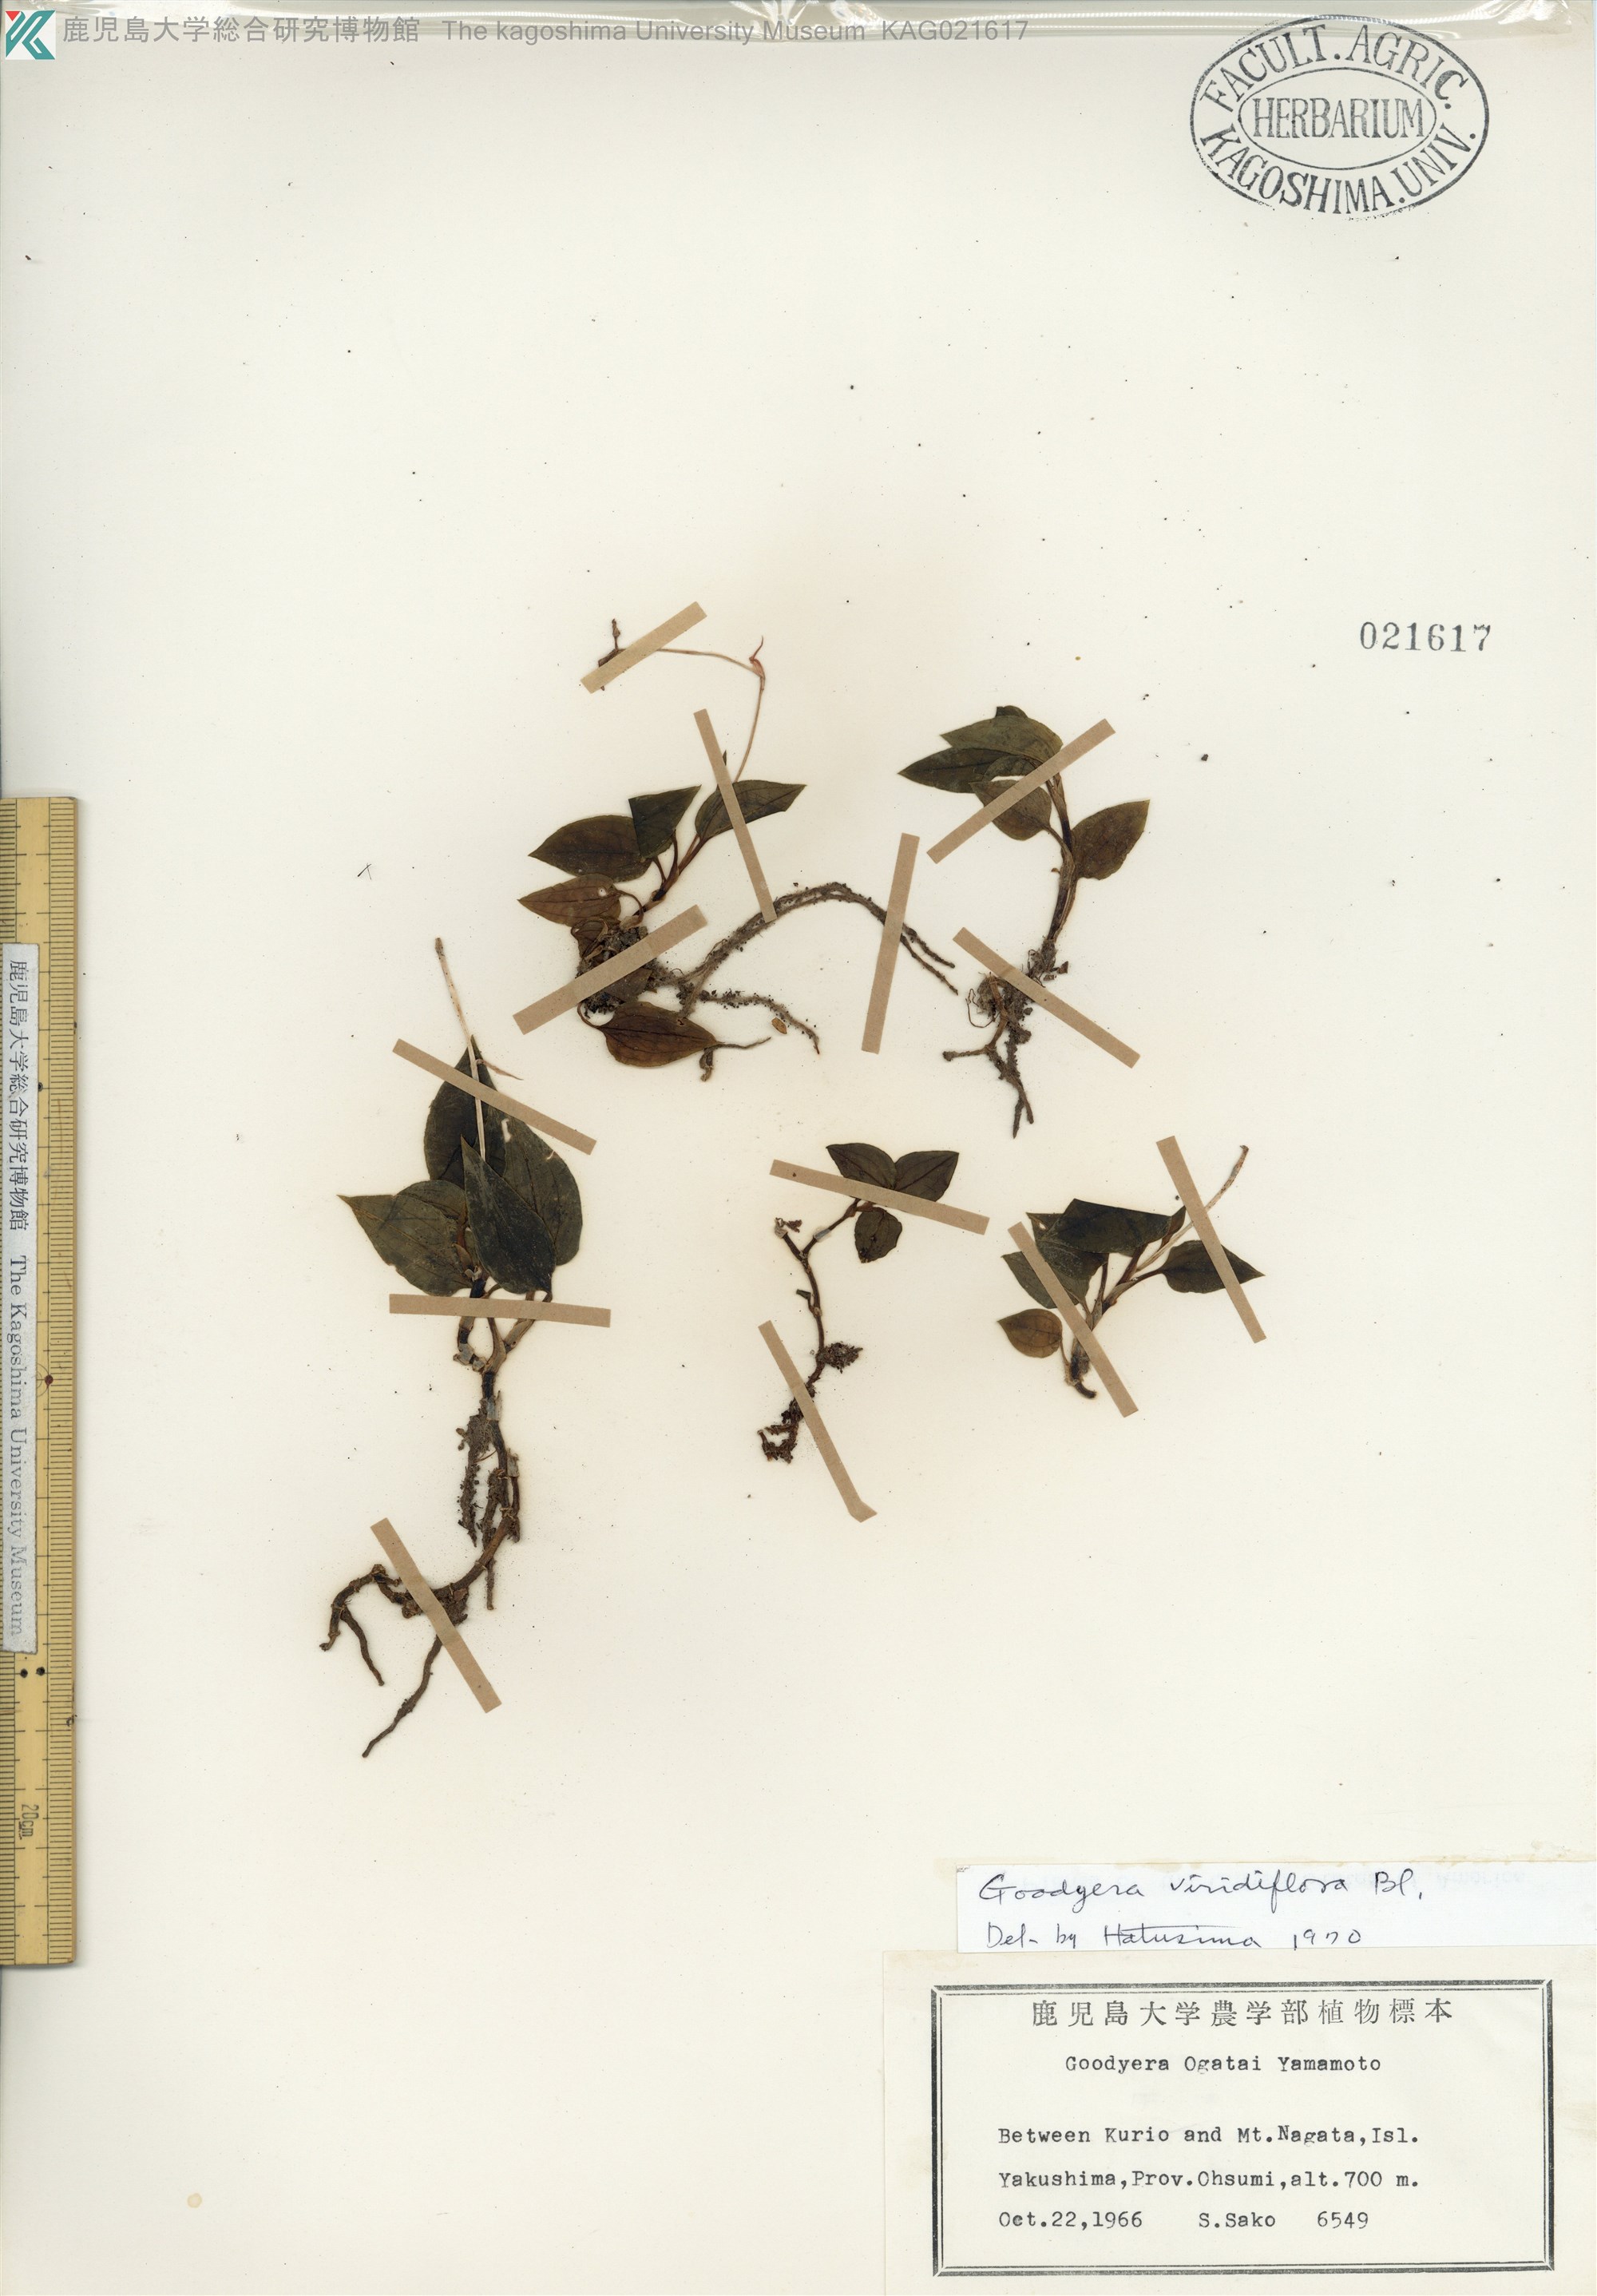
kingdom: Plantae
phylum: Tracheophyta
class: Liliopsida
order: Asparagales
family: Orchidaceae
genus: Goodyera
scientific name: Goodyera viridiflora
